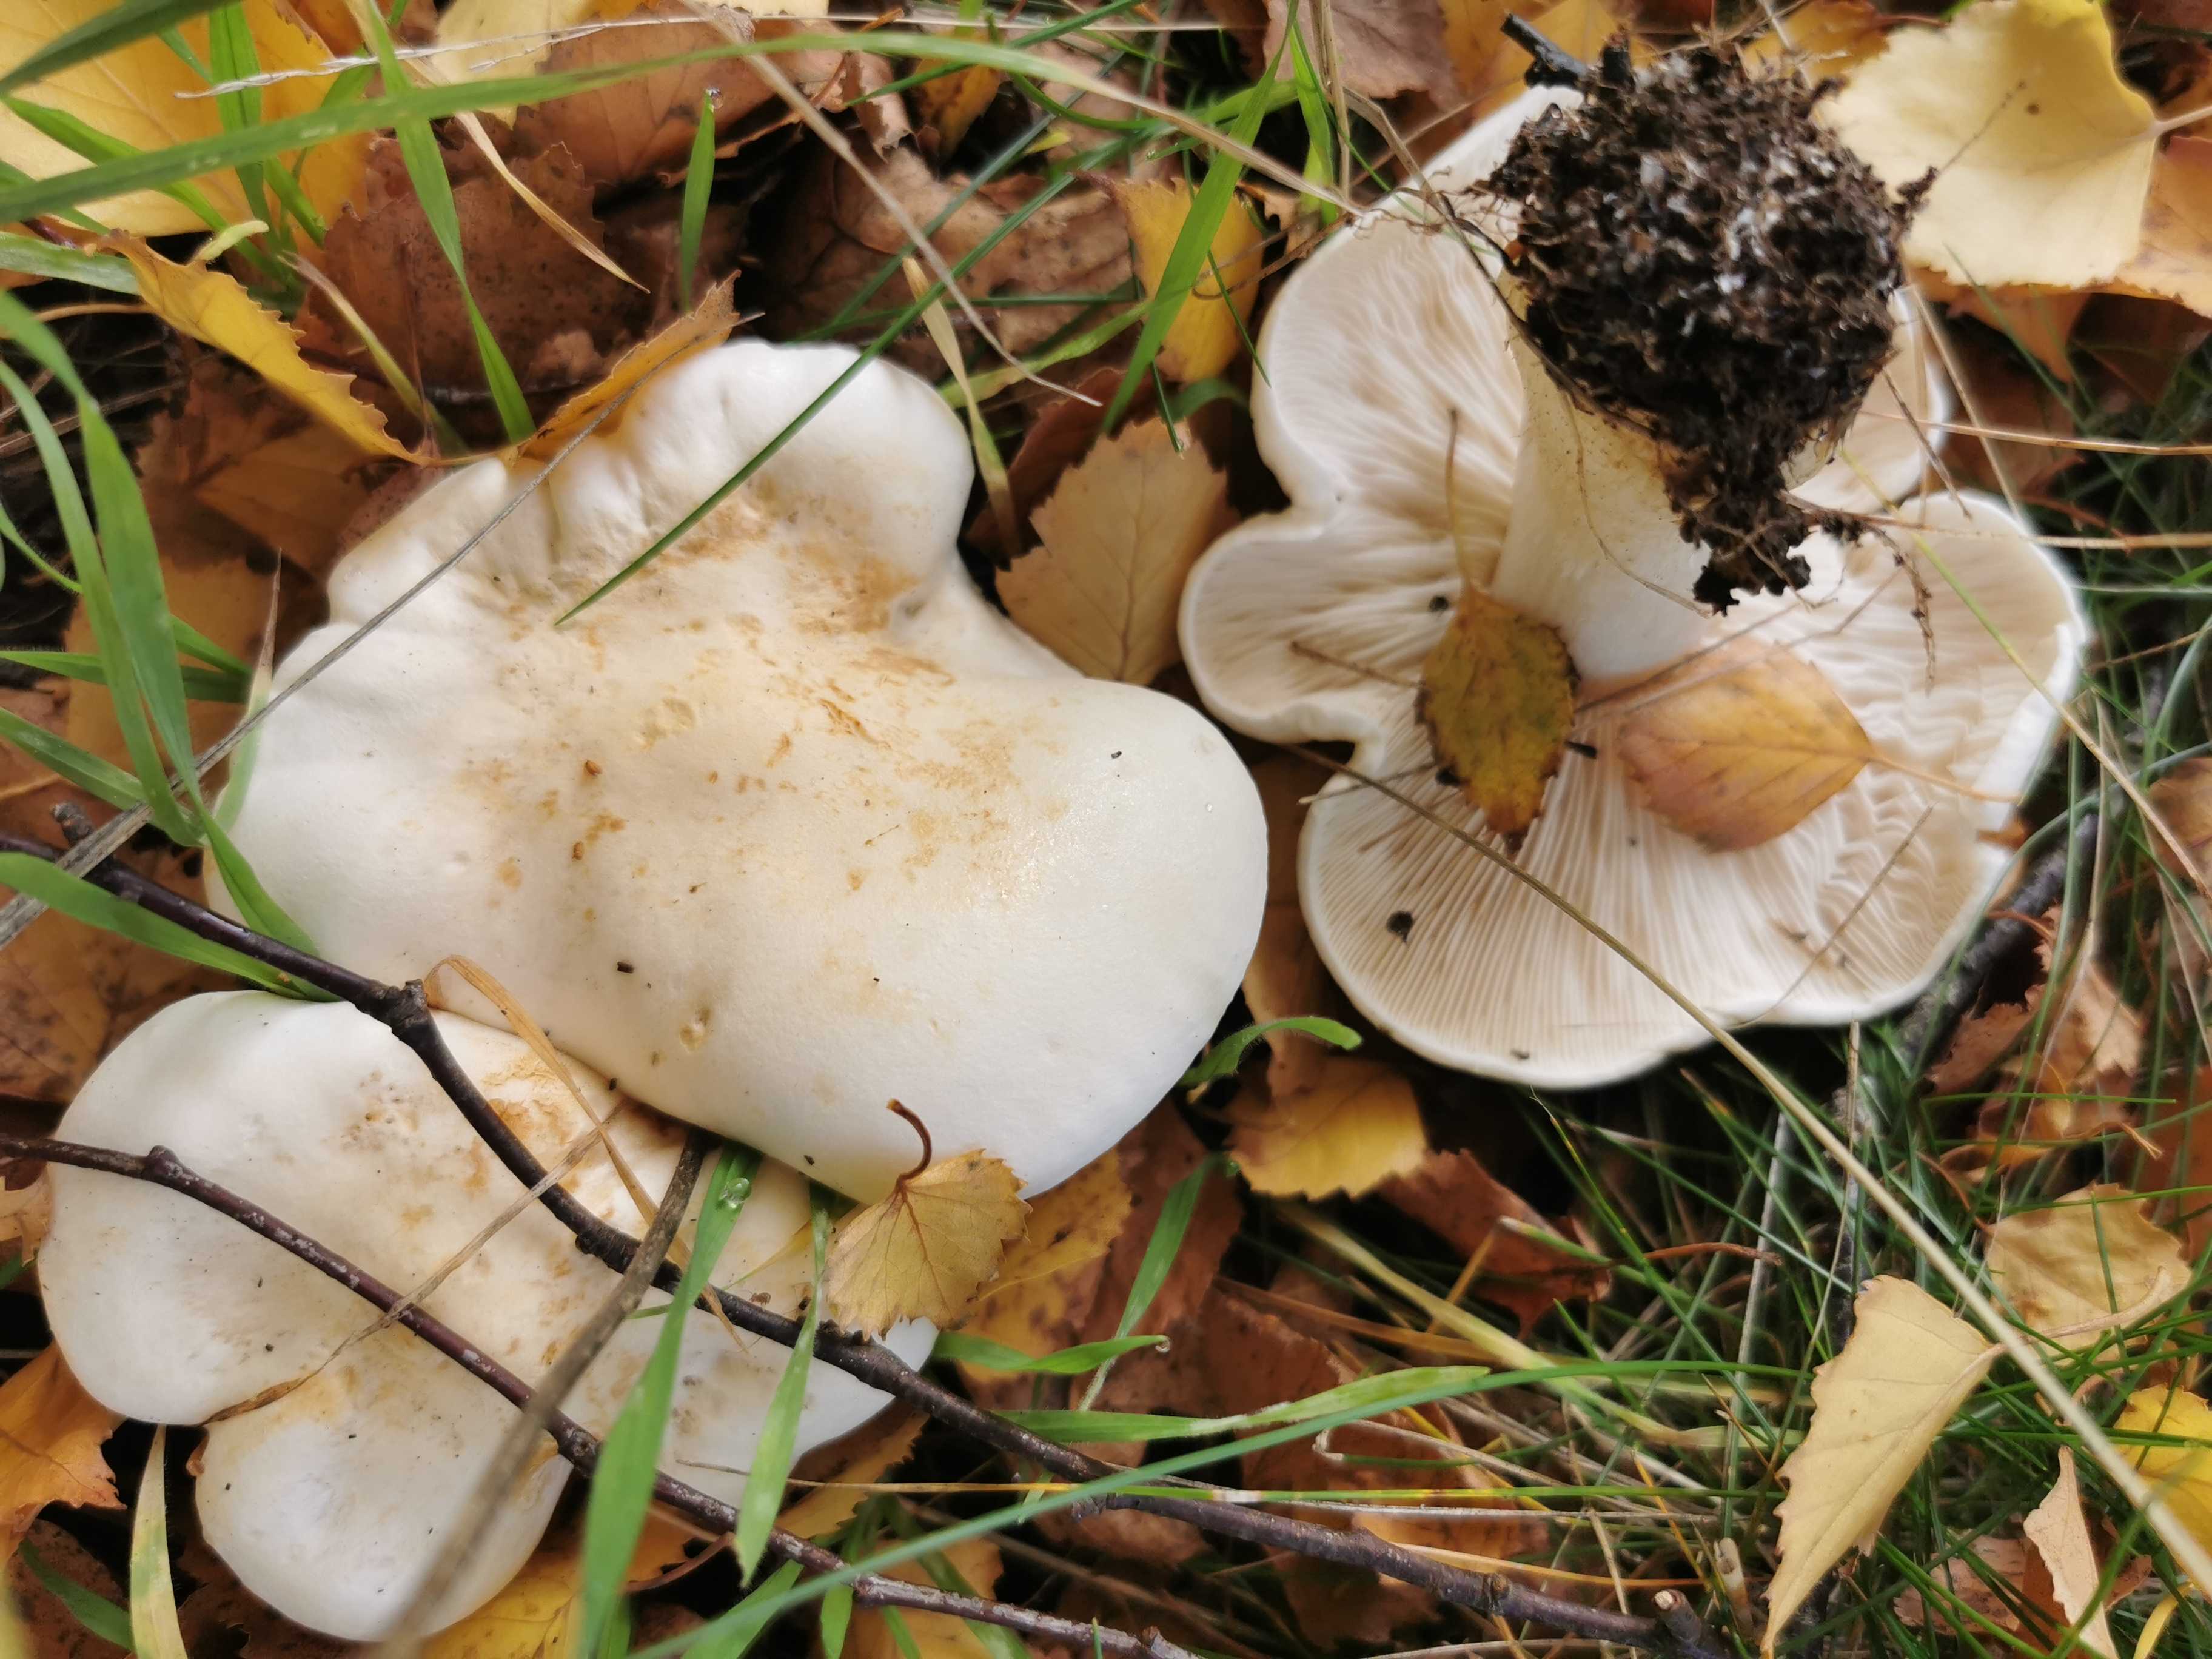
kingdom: Fungi
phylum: Basidiomycota
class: Agaricomycetes
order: Agaricales
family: Tricholomataceae
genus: Tricholoma
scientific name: Tricholoma stiparophyllum
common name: hvid ridderhat
